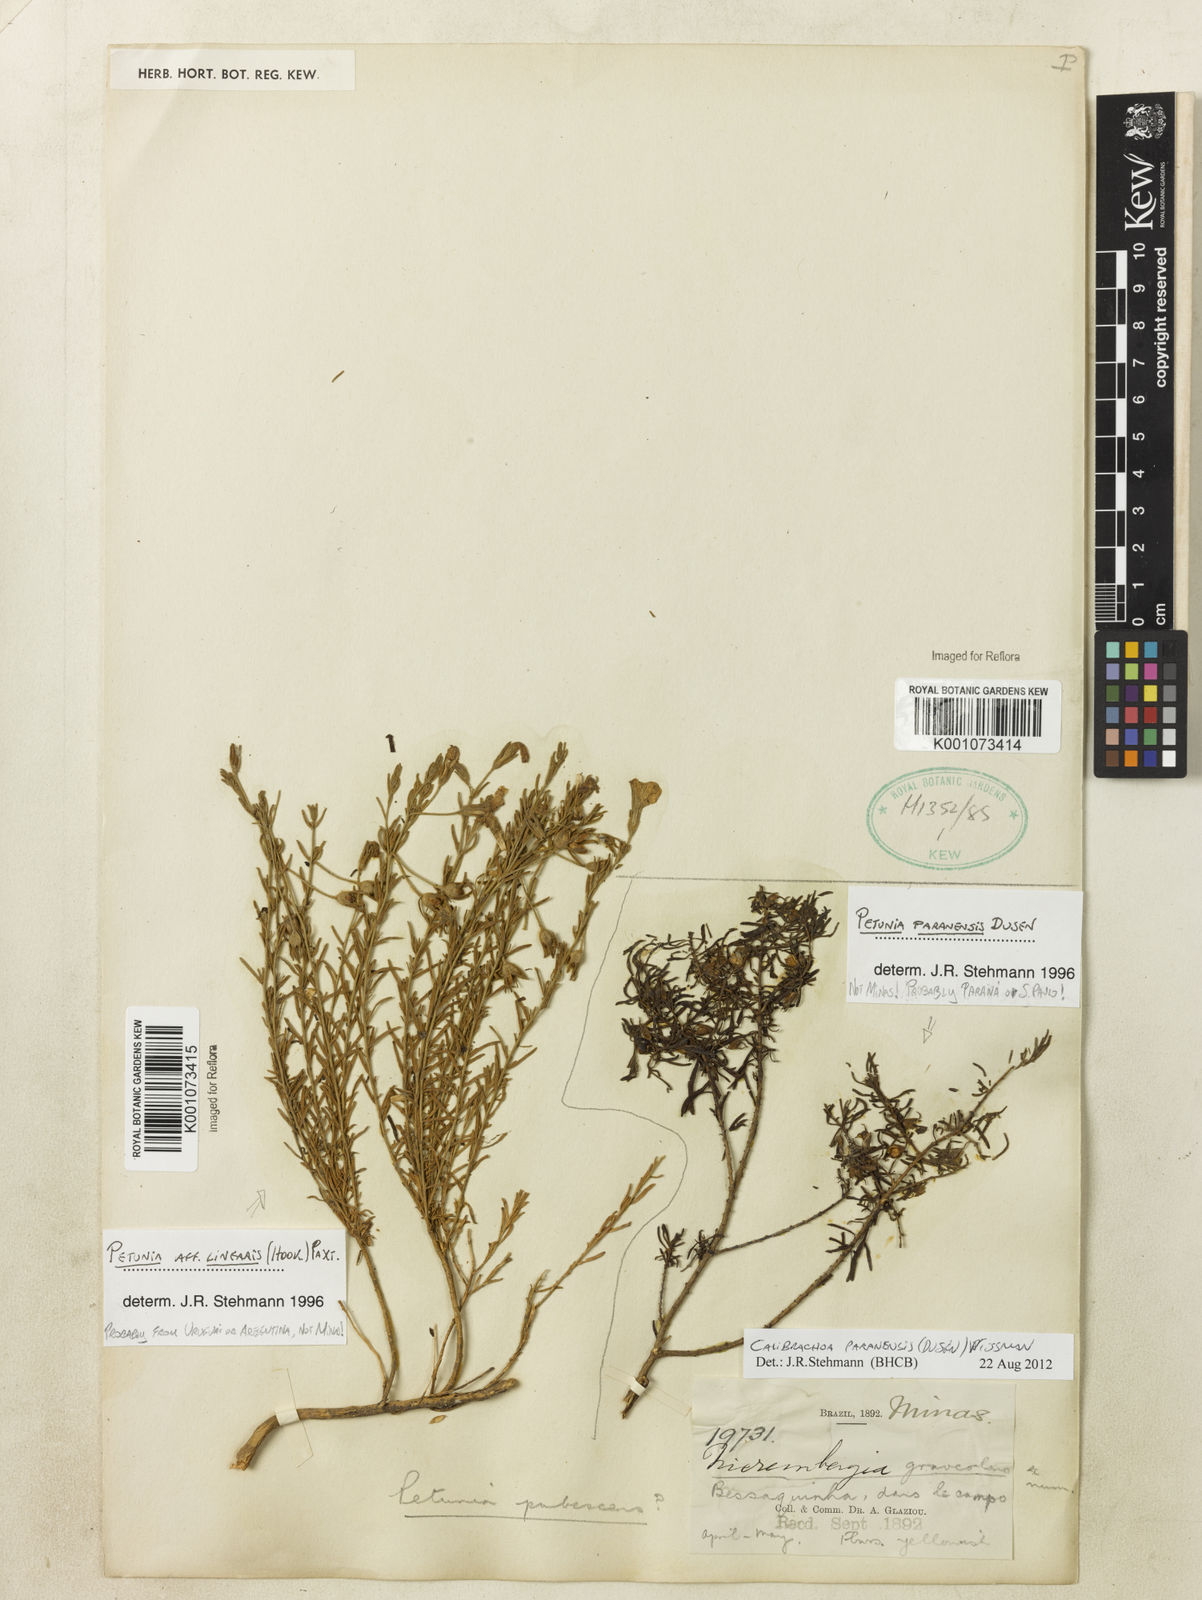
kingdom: Plantae
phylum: Tracheophyta
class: Magnoliopsida
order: Solanales
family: Solanaceae
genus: Calibrachoa
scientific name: Calibrachoa
